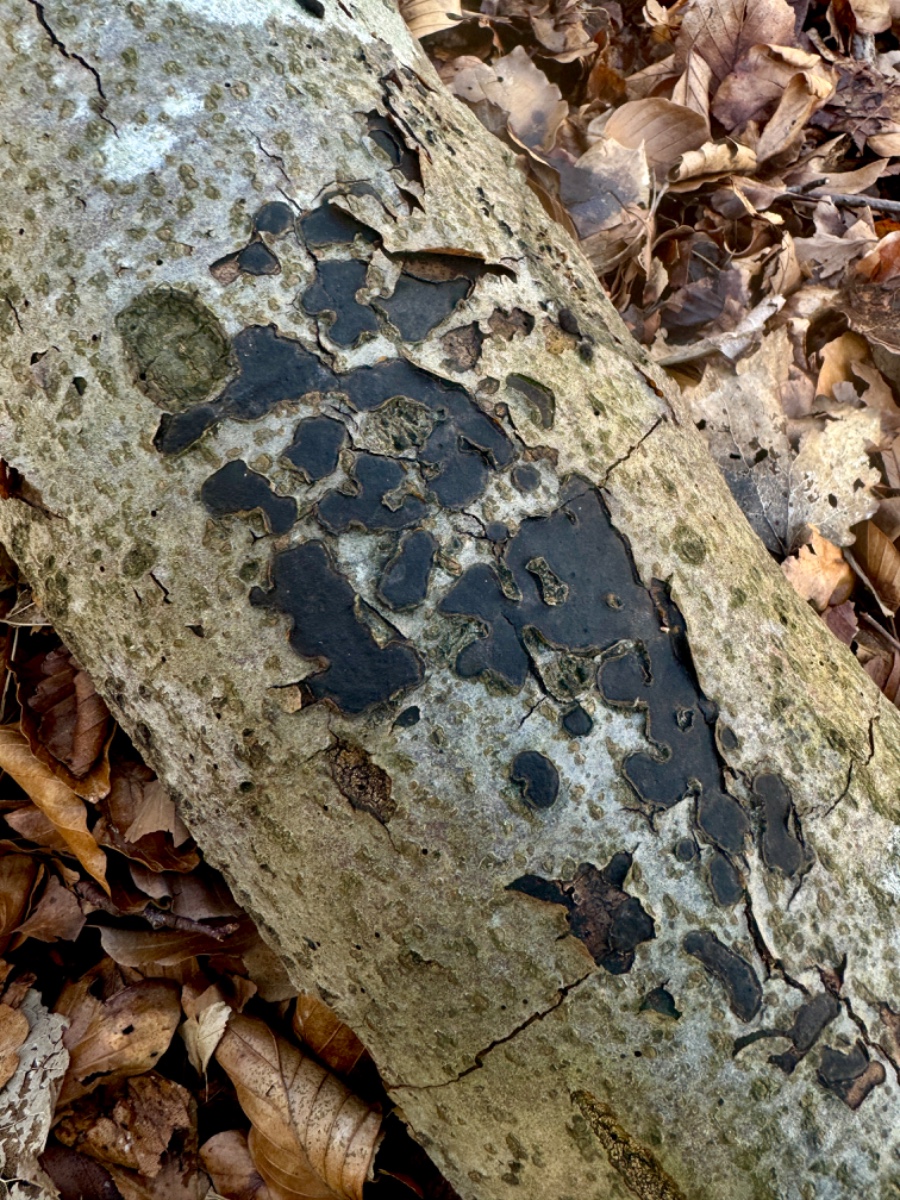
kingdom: Fungi
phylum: Ascomycota
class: Sordariomycetes
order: Xylariales
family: Graphostromataceae
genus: Biscogniauxia
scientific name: Biscogniauxia nummularia
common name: bøge-kulskive
